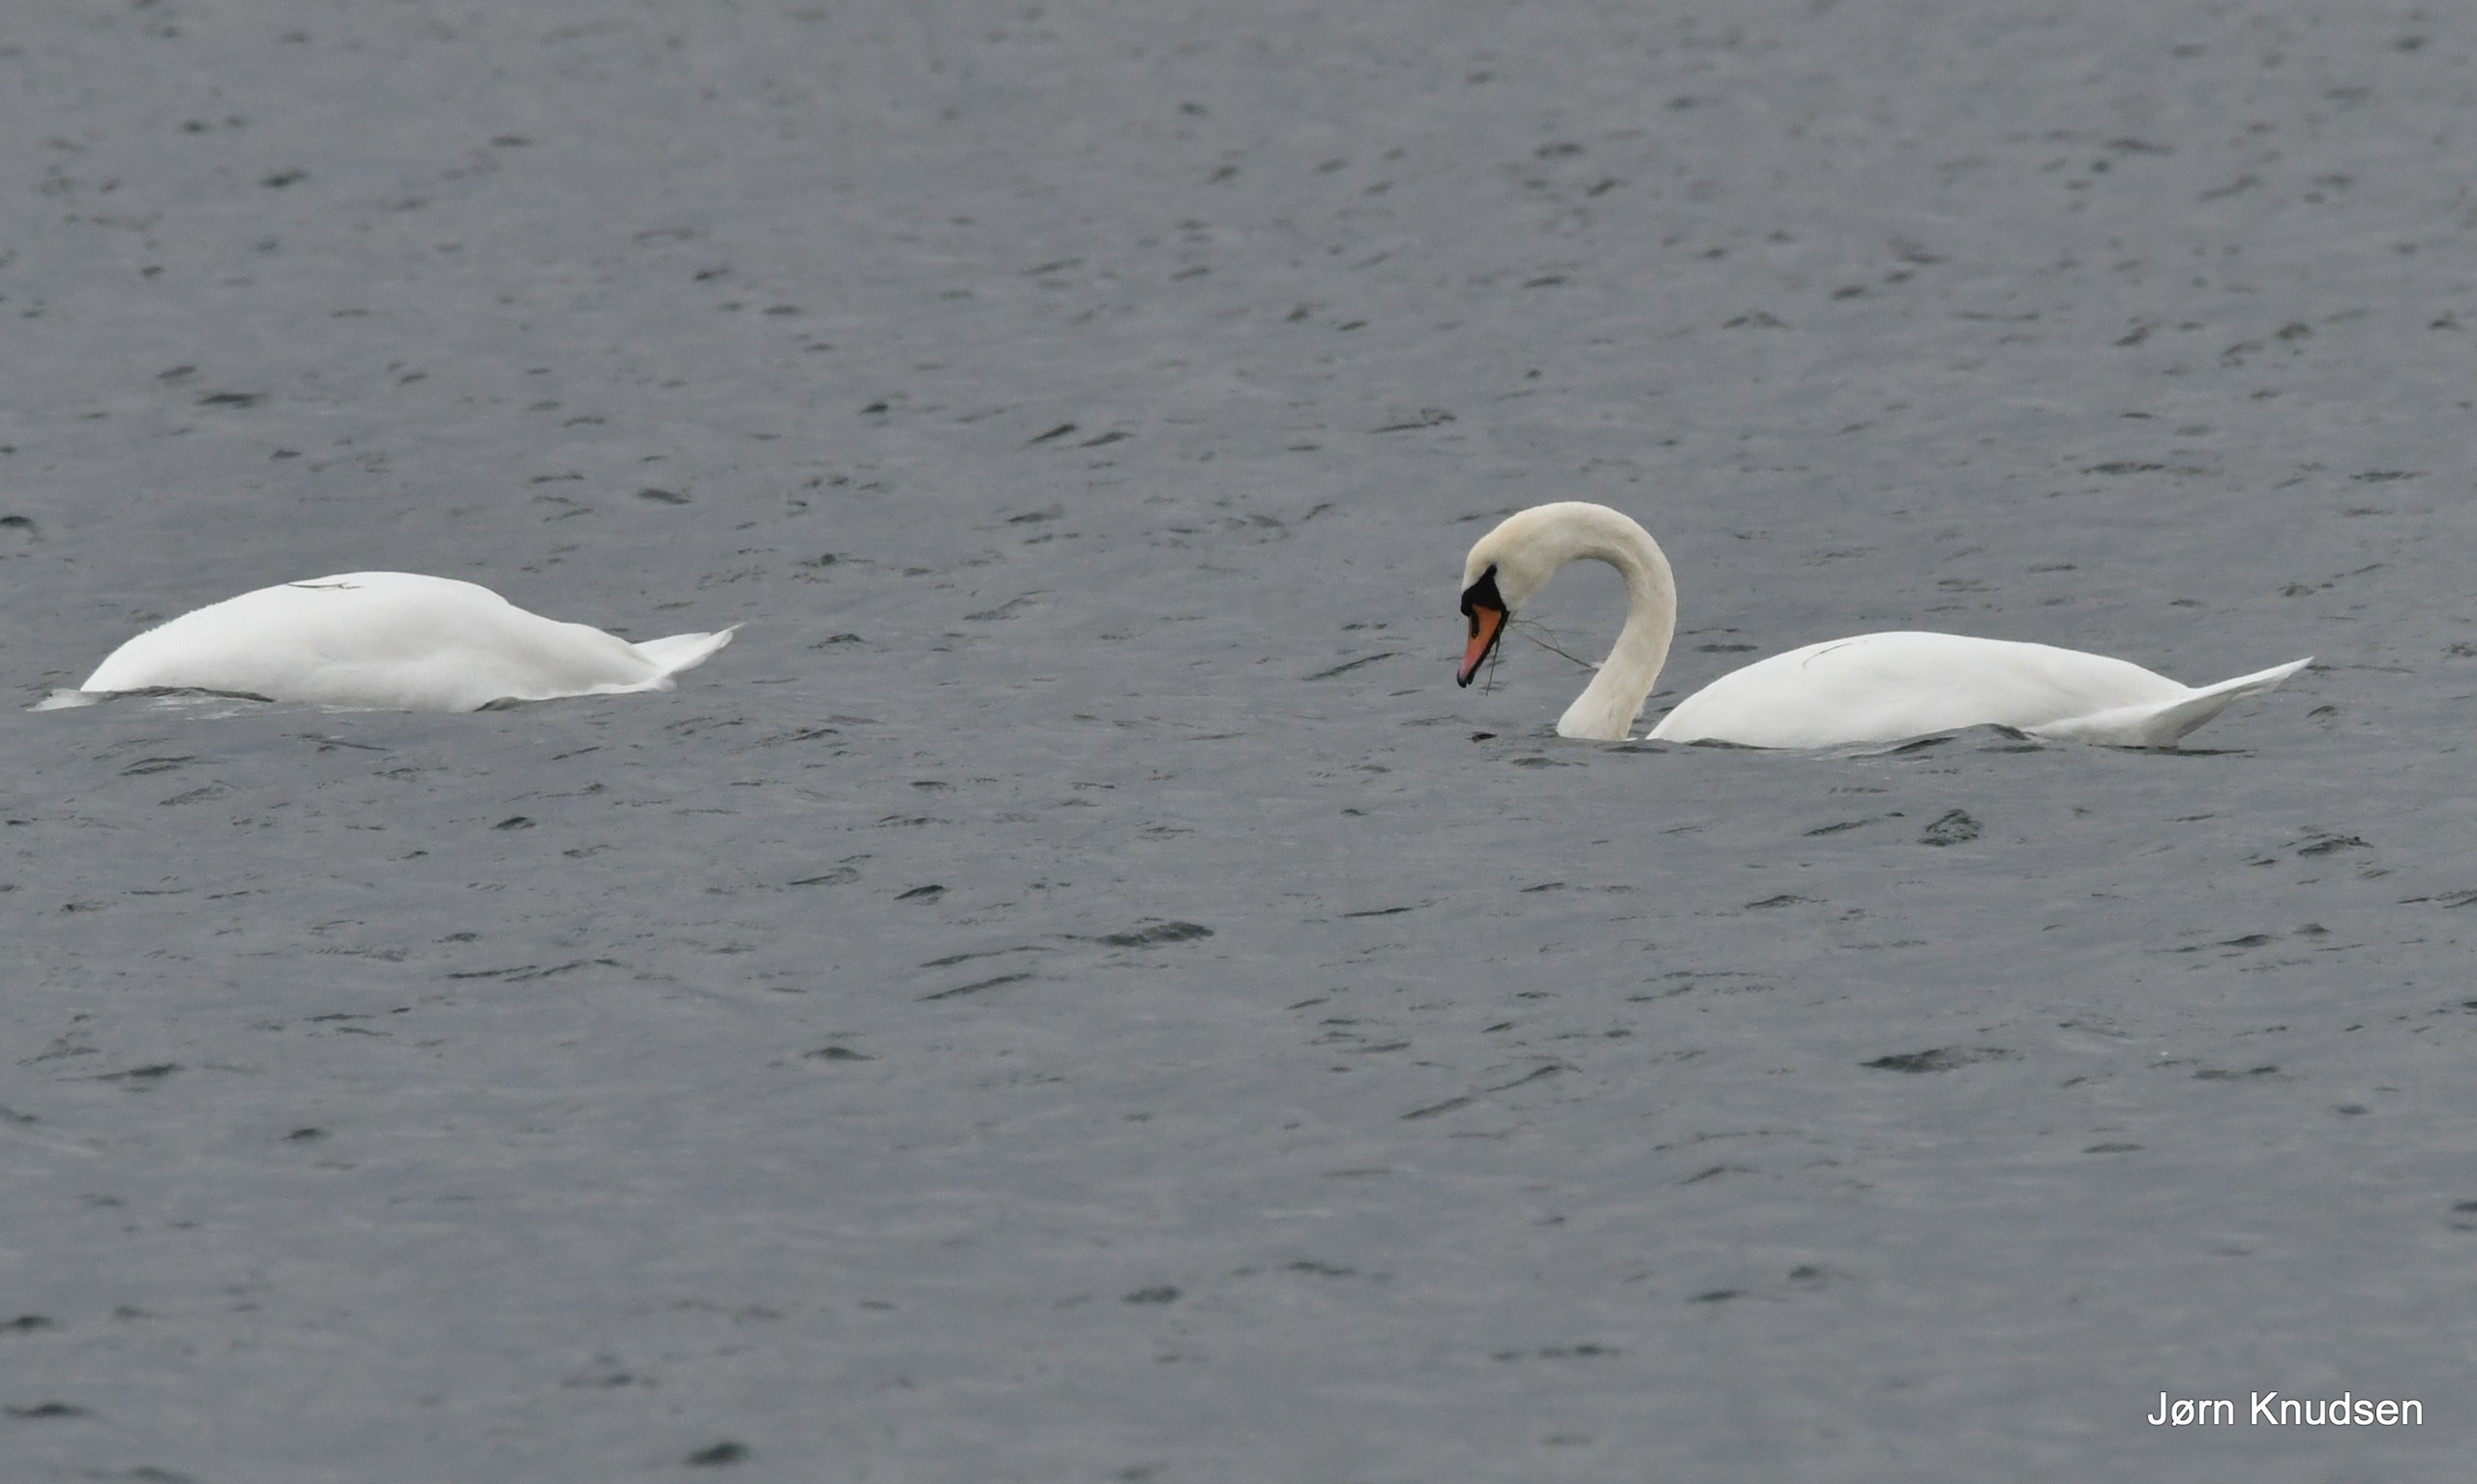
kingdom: Animalia
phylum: Chordata
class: Aves
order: Anseriformes
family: Anatidae
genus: Cygnus
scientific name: Cygnus olor
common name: Knopsvane
